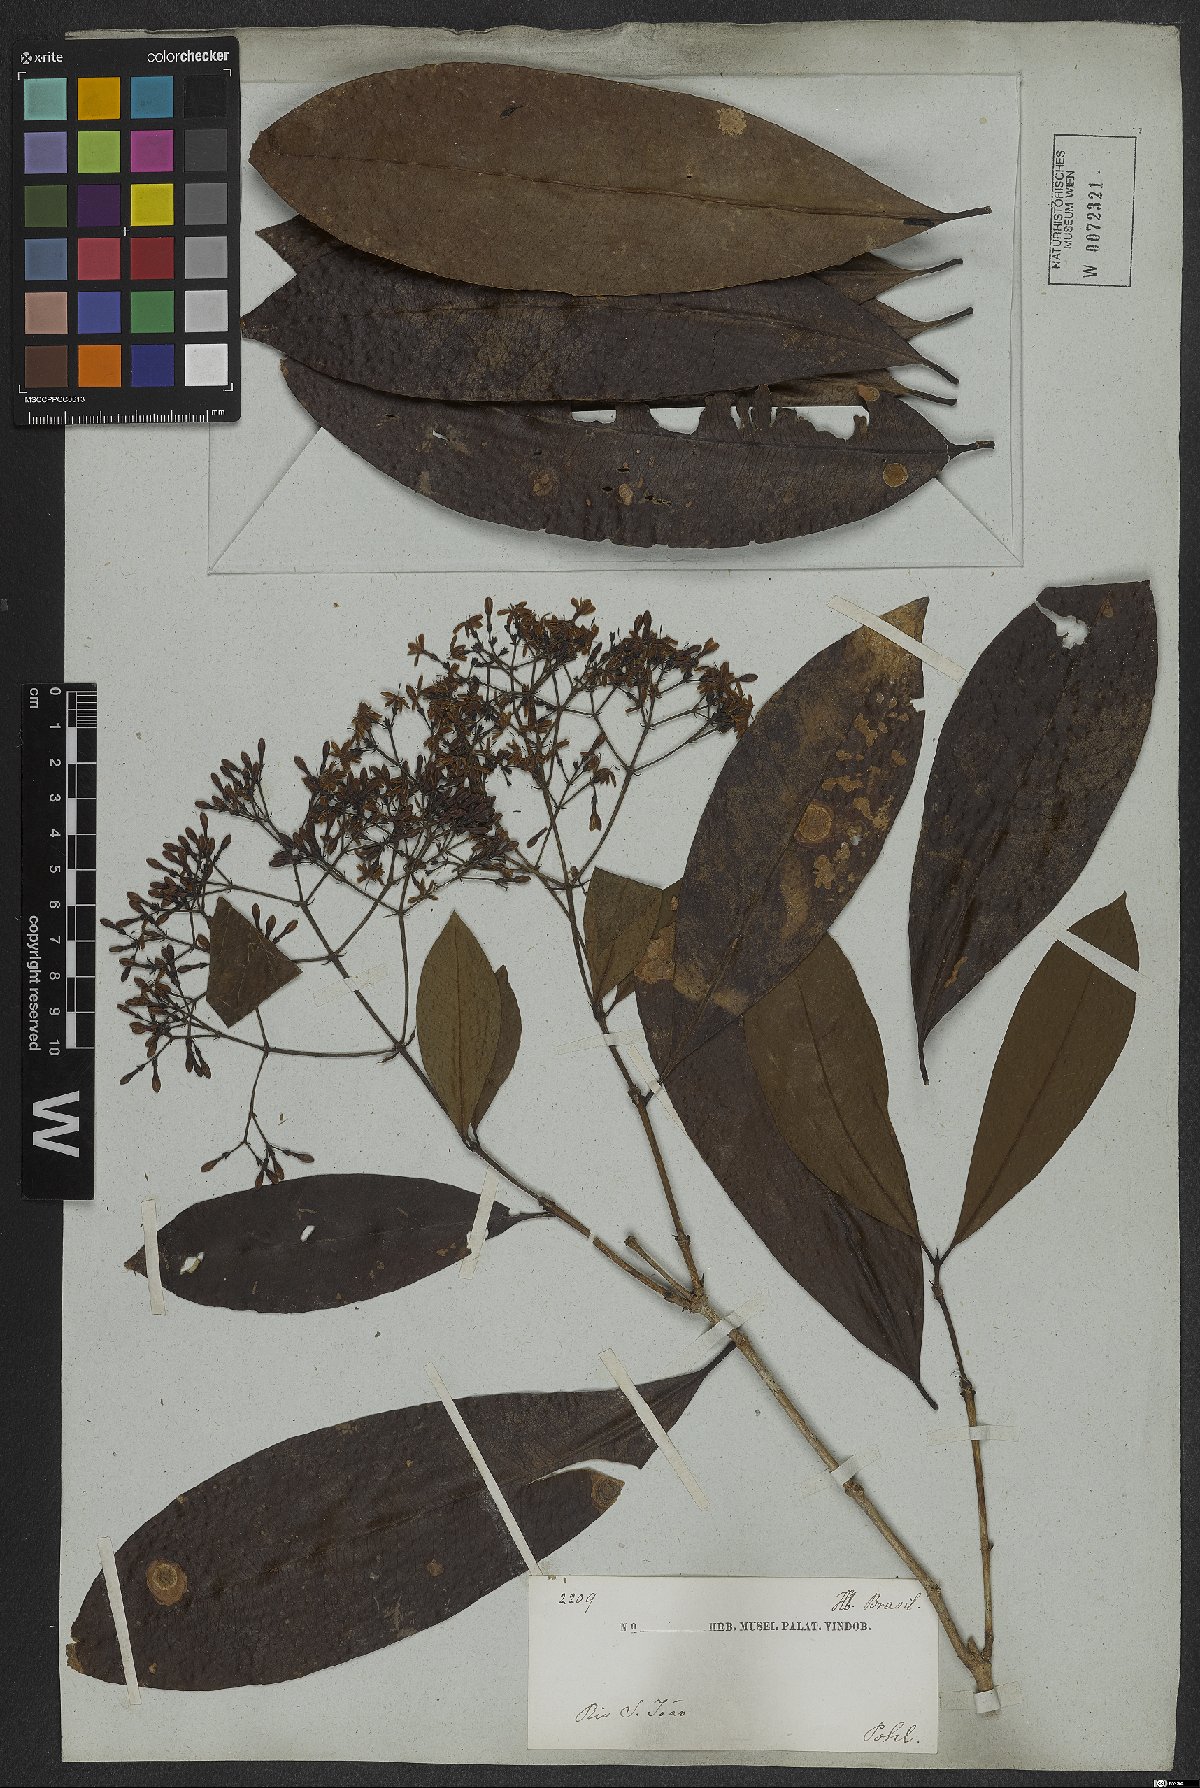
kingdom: Plantae
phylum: Tracheophyta
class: Magnoliopsida
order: Gentianales
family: Rubiaceae
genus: Ixora
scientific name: Ixora syringiflora
